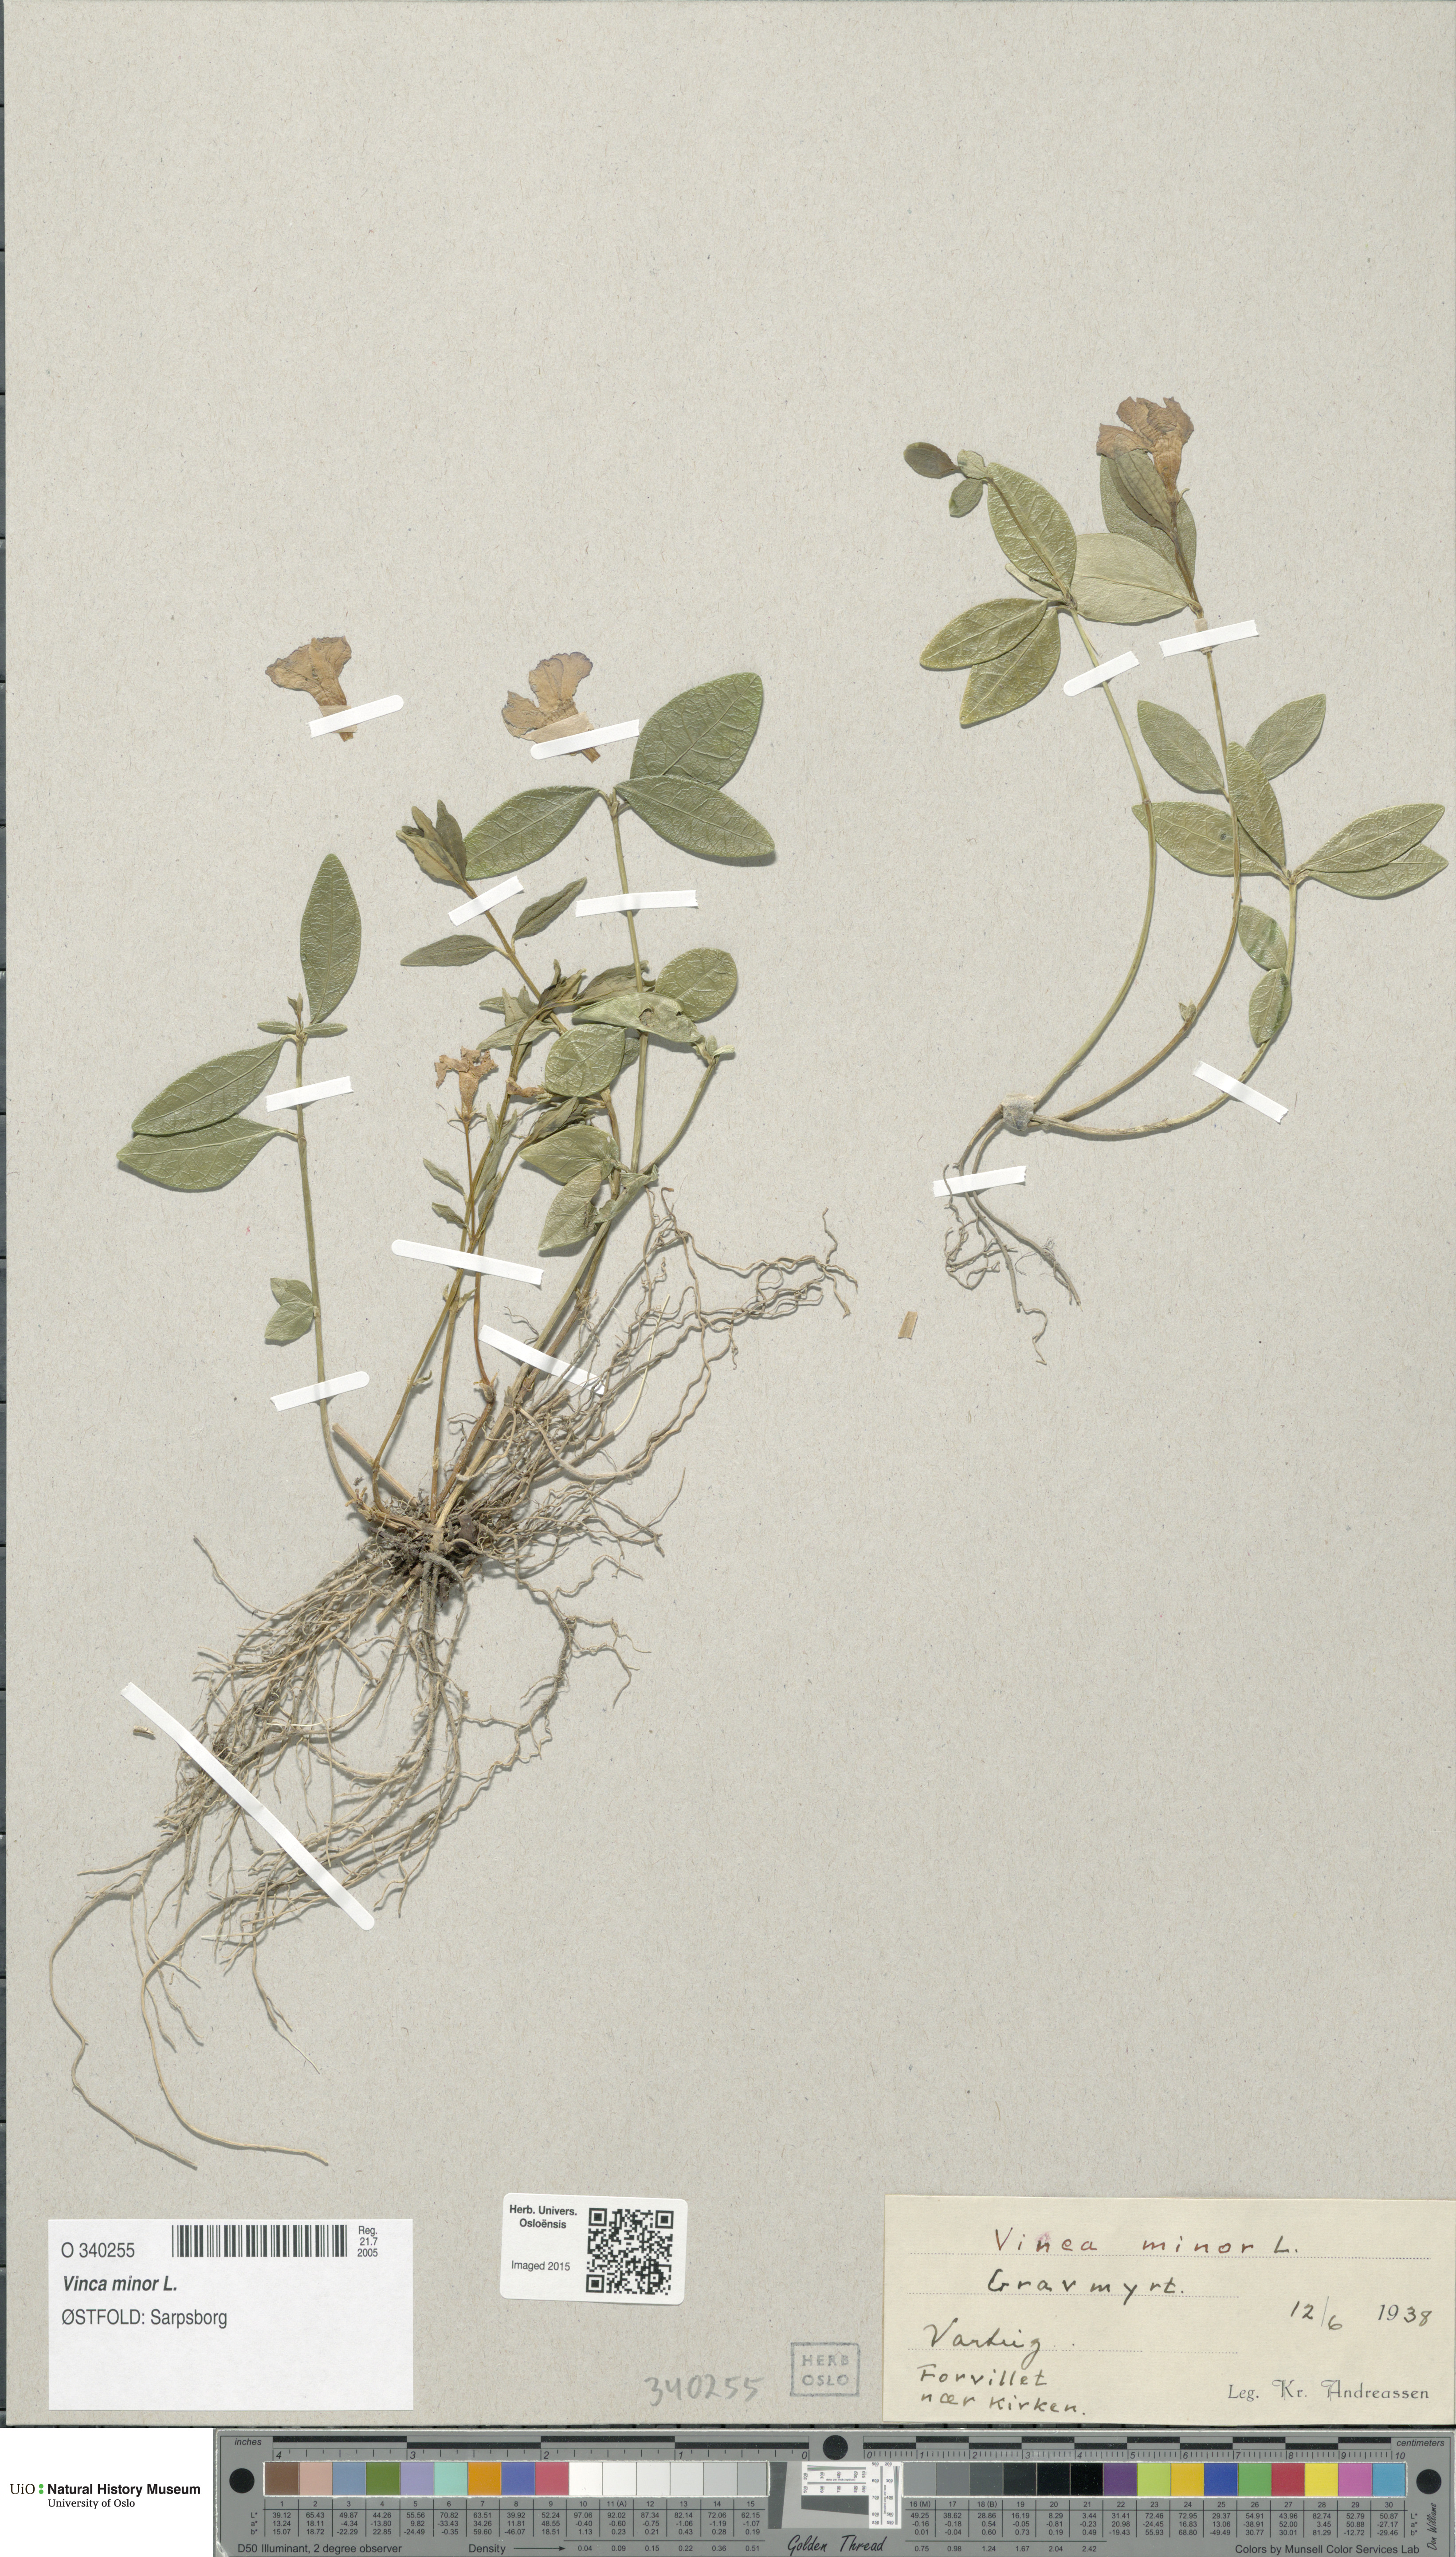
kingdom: Plantae
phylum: Tracheophyta
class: Magnoliopsida
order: Gentianales
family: Apocynaceae
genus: Vinca
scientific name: Vinca minor
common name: Lesser periwinkle
